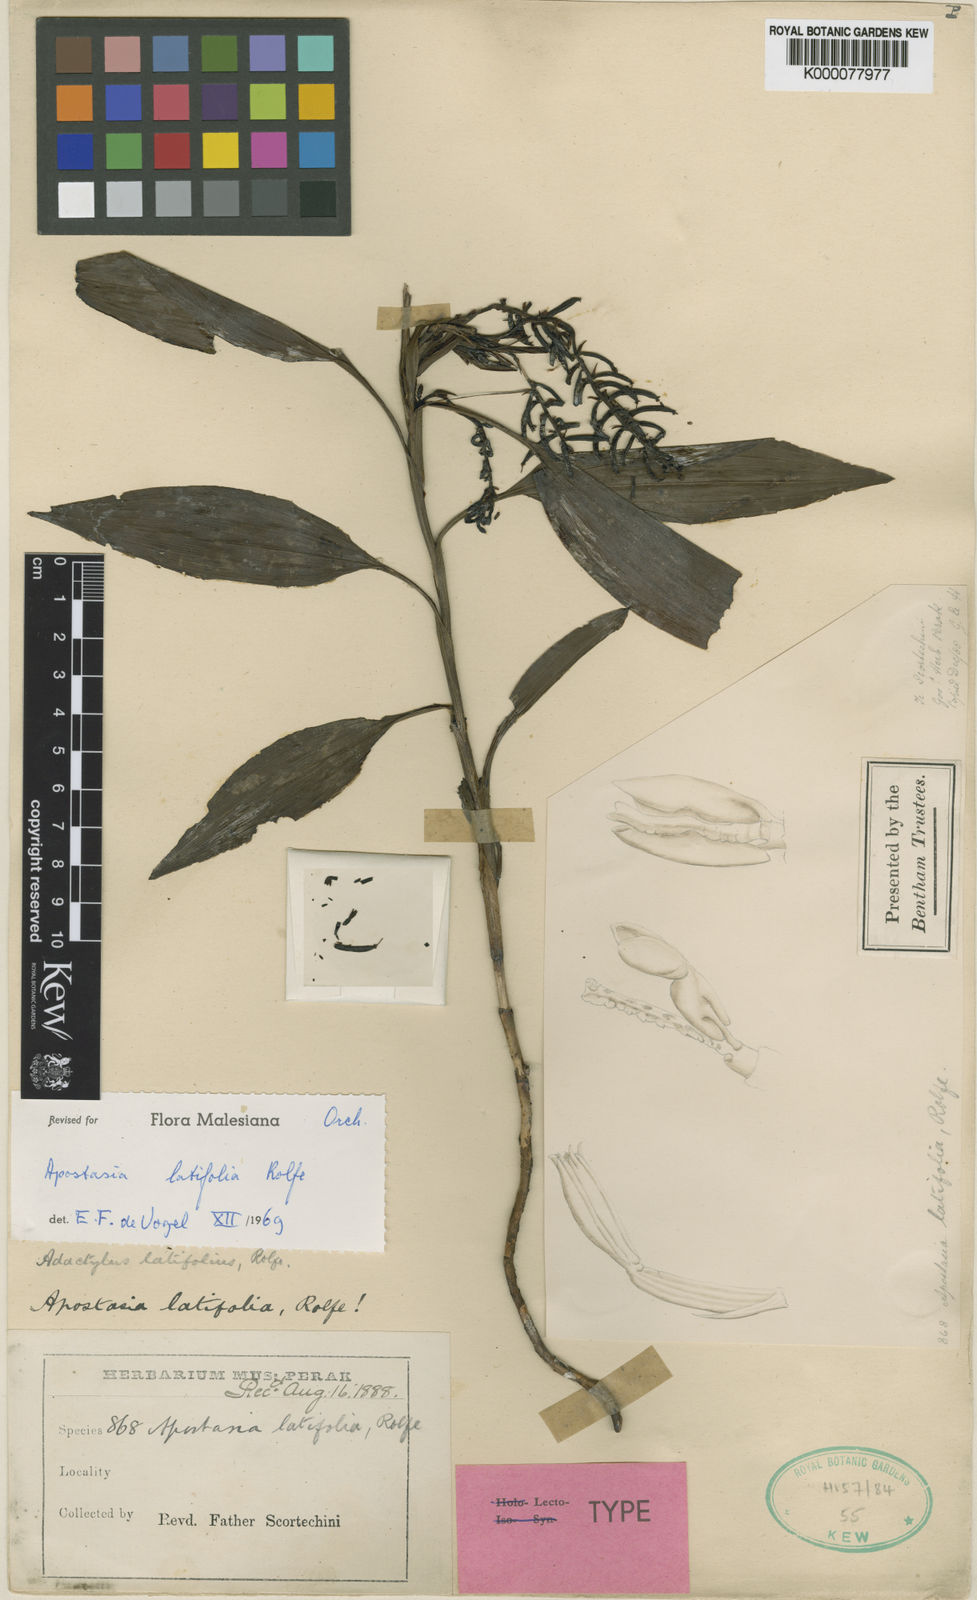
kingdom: Plantae
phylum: Tracheophyta
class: Liliopsida
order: Asparagales
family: Orchidaceae
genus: Apostasia
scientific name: Apostasia latifolia
